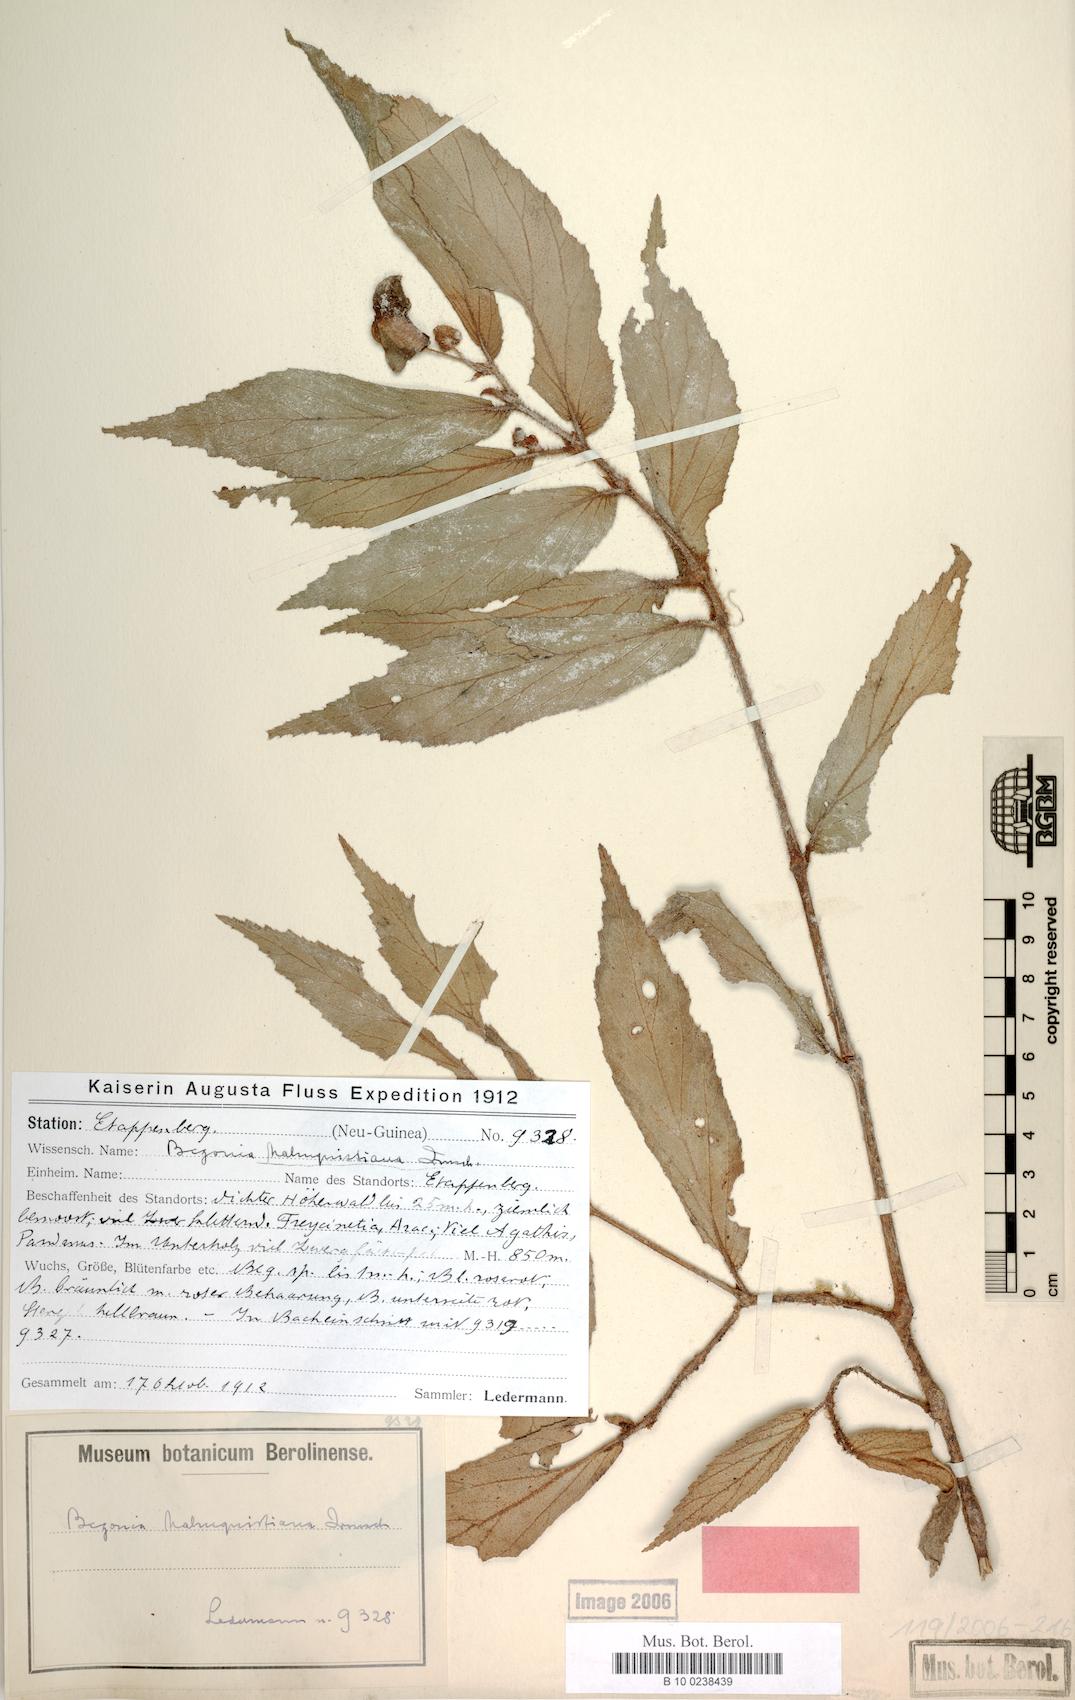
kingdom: Plantae
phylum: Tracheophyta
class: Magnoliopsida
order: Cucurbitales
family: Begoniaceae
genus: Begonia
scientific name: Begonia malmquistiana
